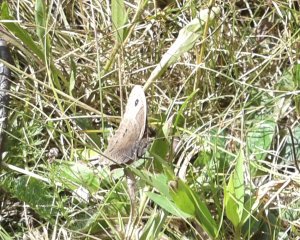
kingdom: Animalia
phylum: Arthropoda
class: Insecta
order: Lepidoptera
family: Nymphalidae
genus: Cercyonis
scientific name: Cercyonis pegala
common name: Common Wood-Nymph
